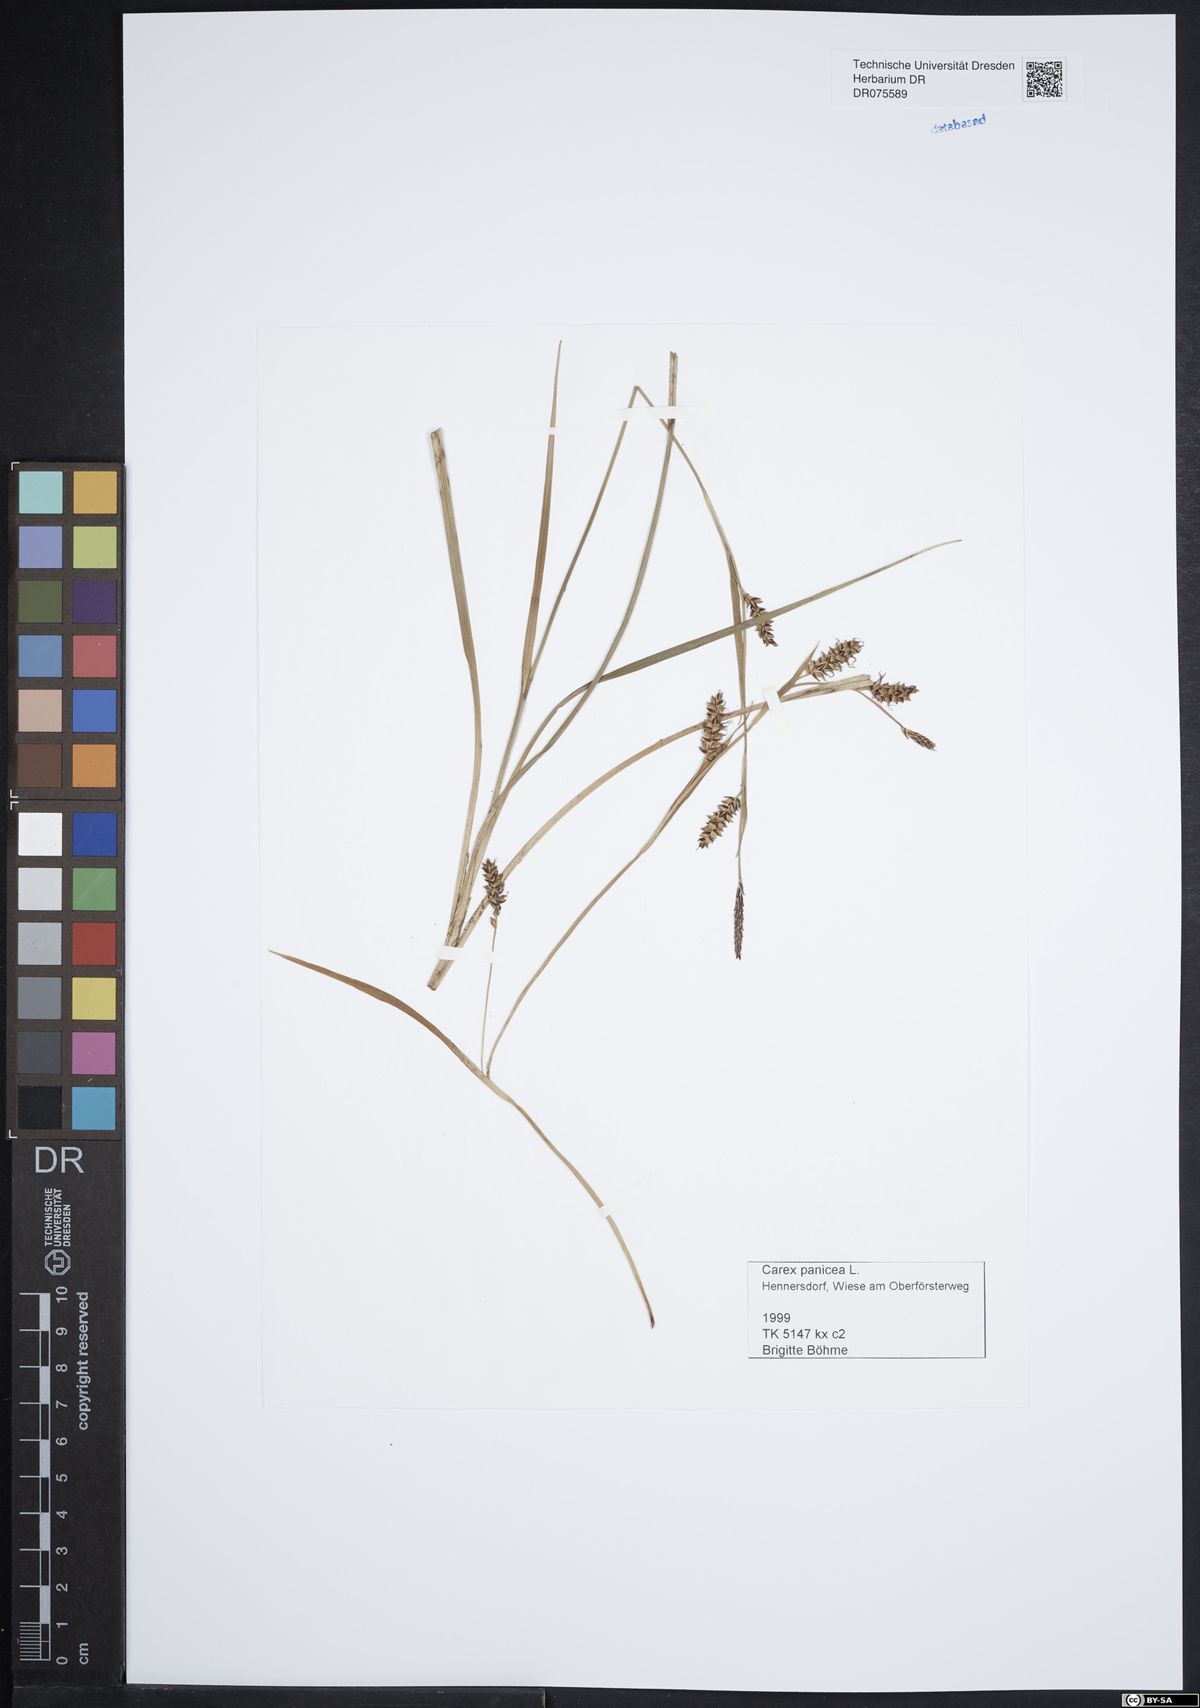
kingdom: Plantae
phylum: Tracheophyta
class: Liliopsida
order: Poales
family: Cyperaceae
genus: Carex
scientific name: Carex panicea
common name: Carnation sedge
